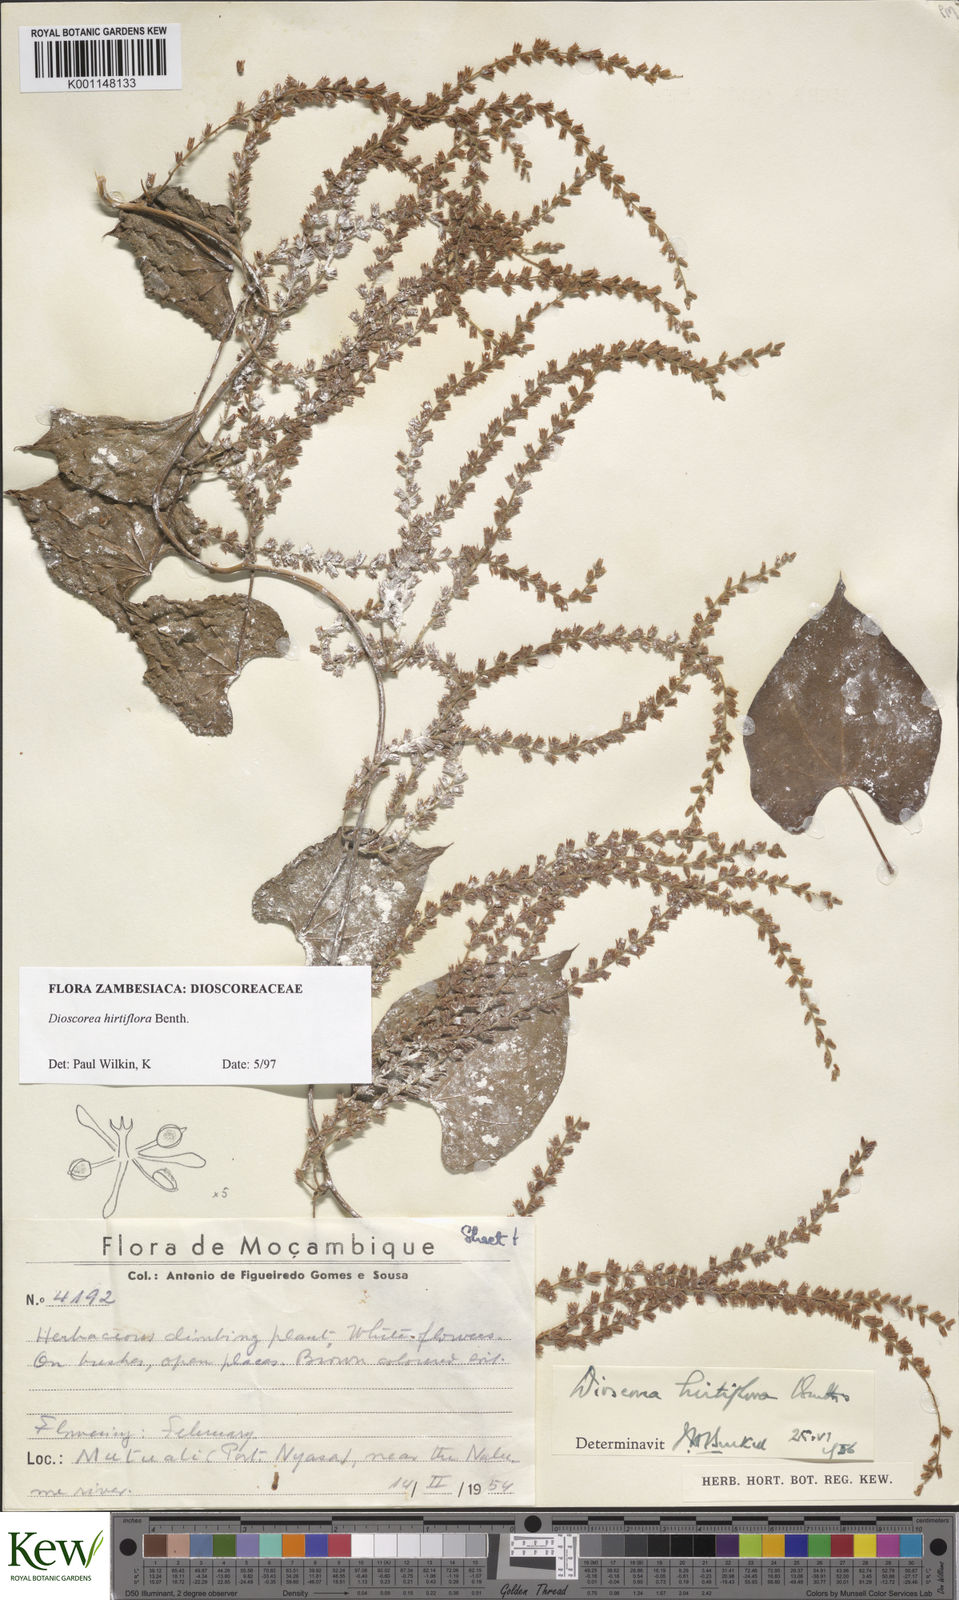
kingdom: Plantae
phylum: Tracheophyta
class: Liliopsida
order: Dioscoreales
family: Dioscoreaceae
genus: Dioscorea
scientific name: Dioscorea hirtiflora
